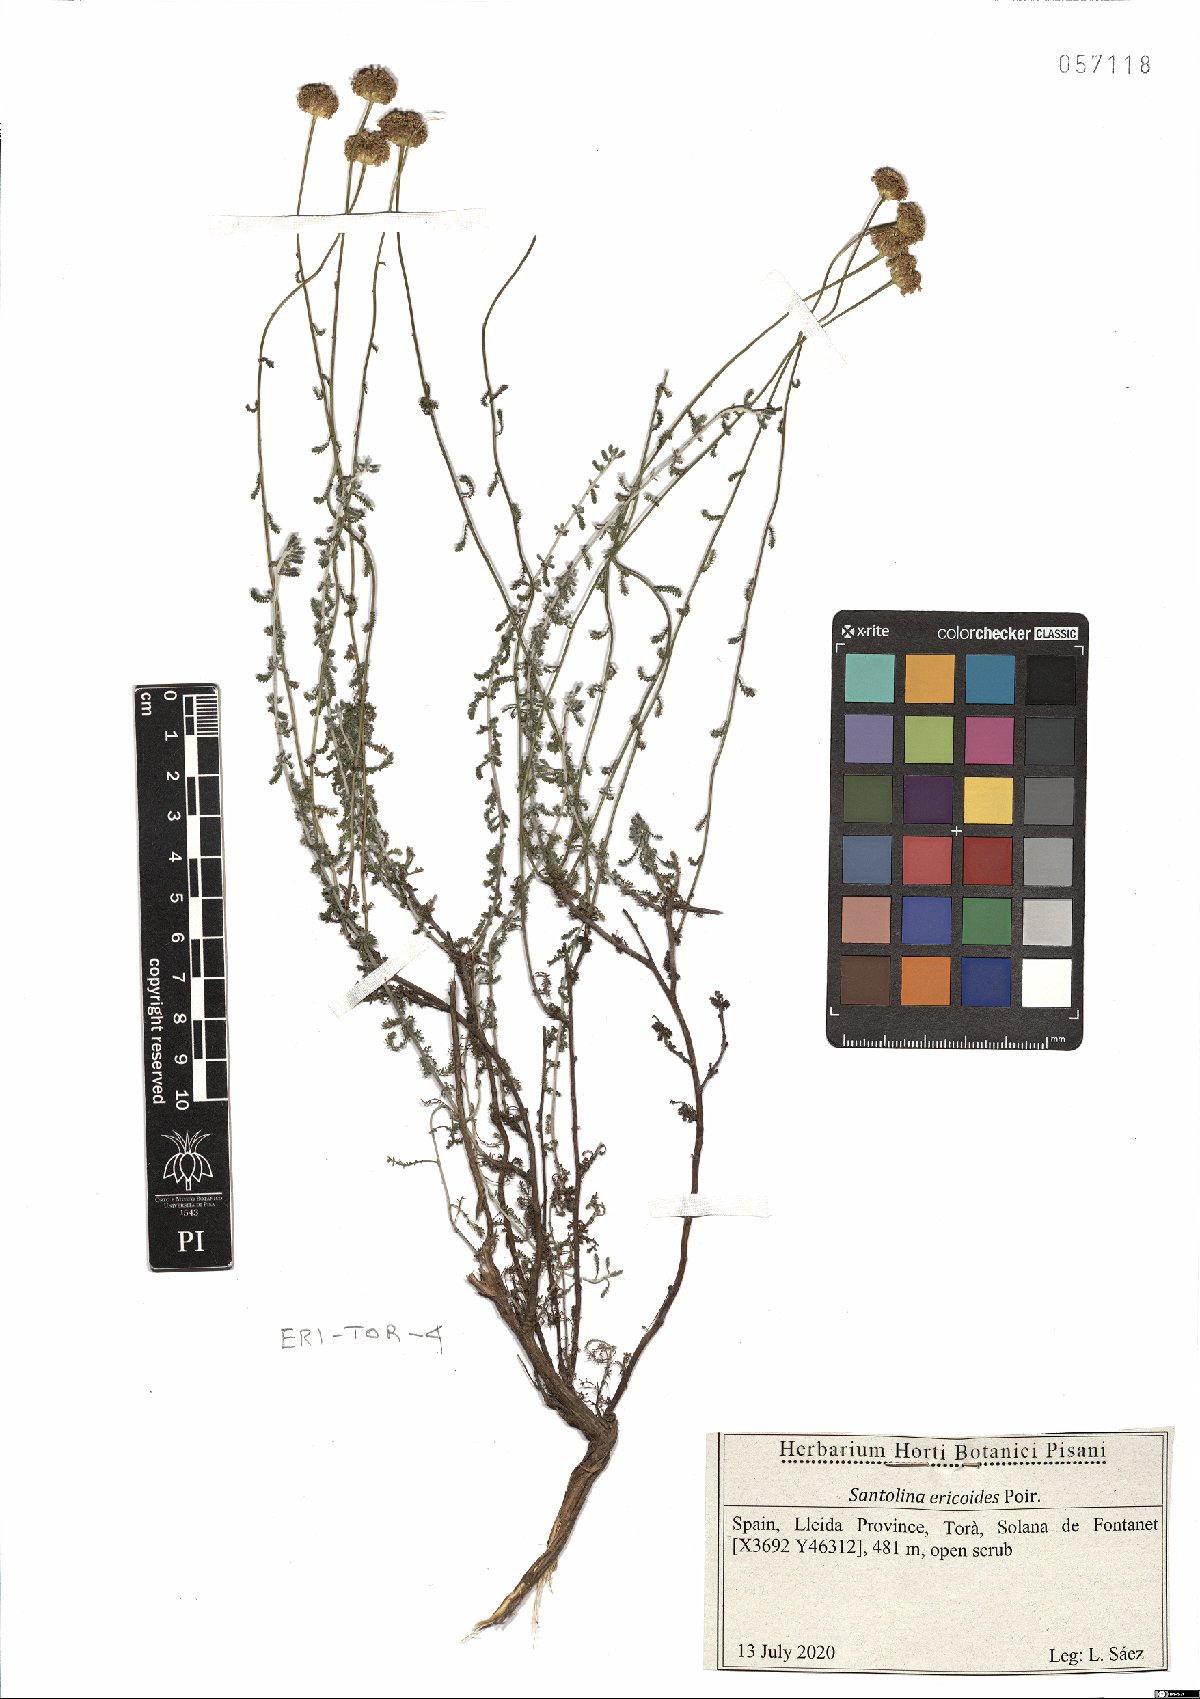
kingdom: Plantae
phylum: Tracheophyta
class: Magnoliopsida
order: Asterales
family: Asteraceae
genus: Santolina
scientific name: Santolina ericoides
